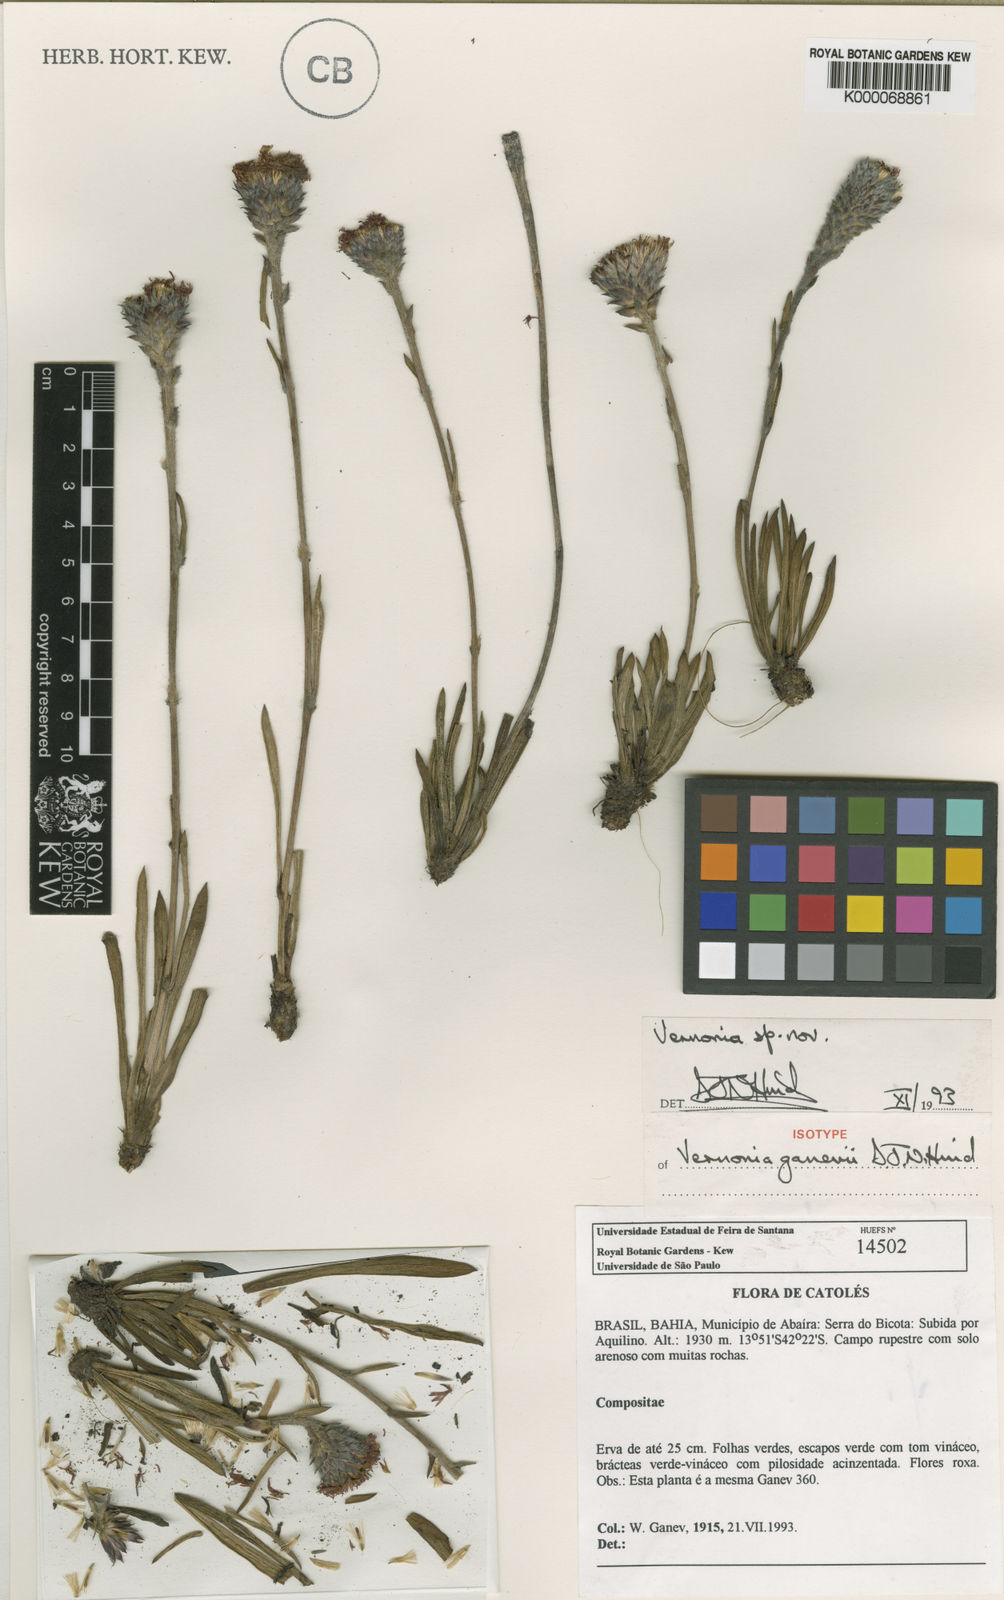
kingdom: Plantae
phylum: Tracheophyta
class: Magnoliopsida
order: Asterales
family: Asteraceae
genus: Vernonia
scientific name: Vernonia ganevii
